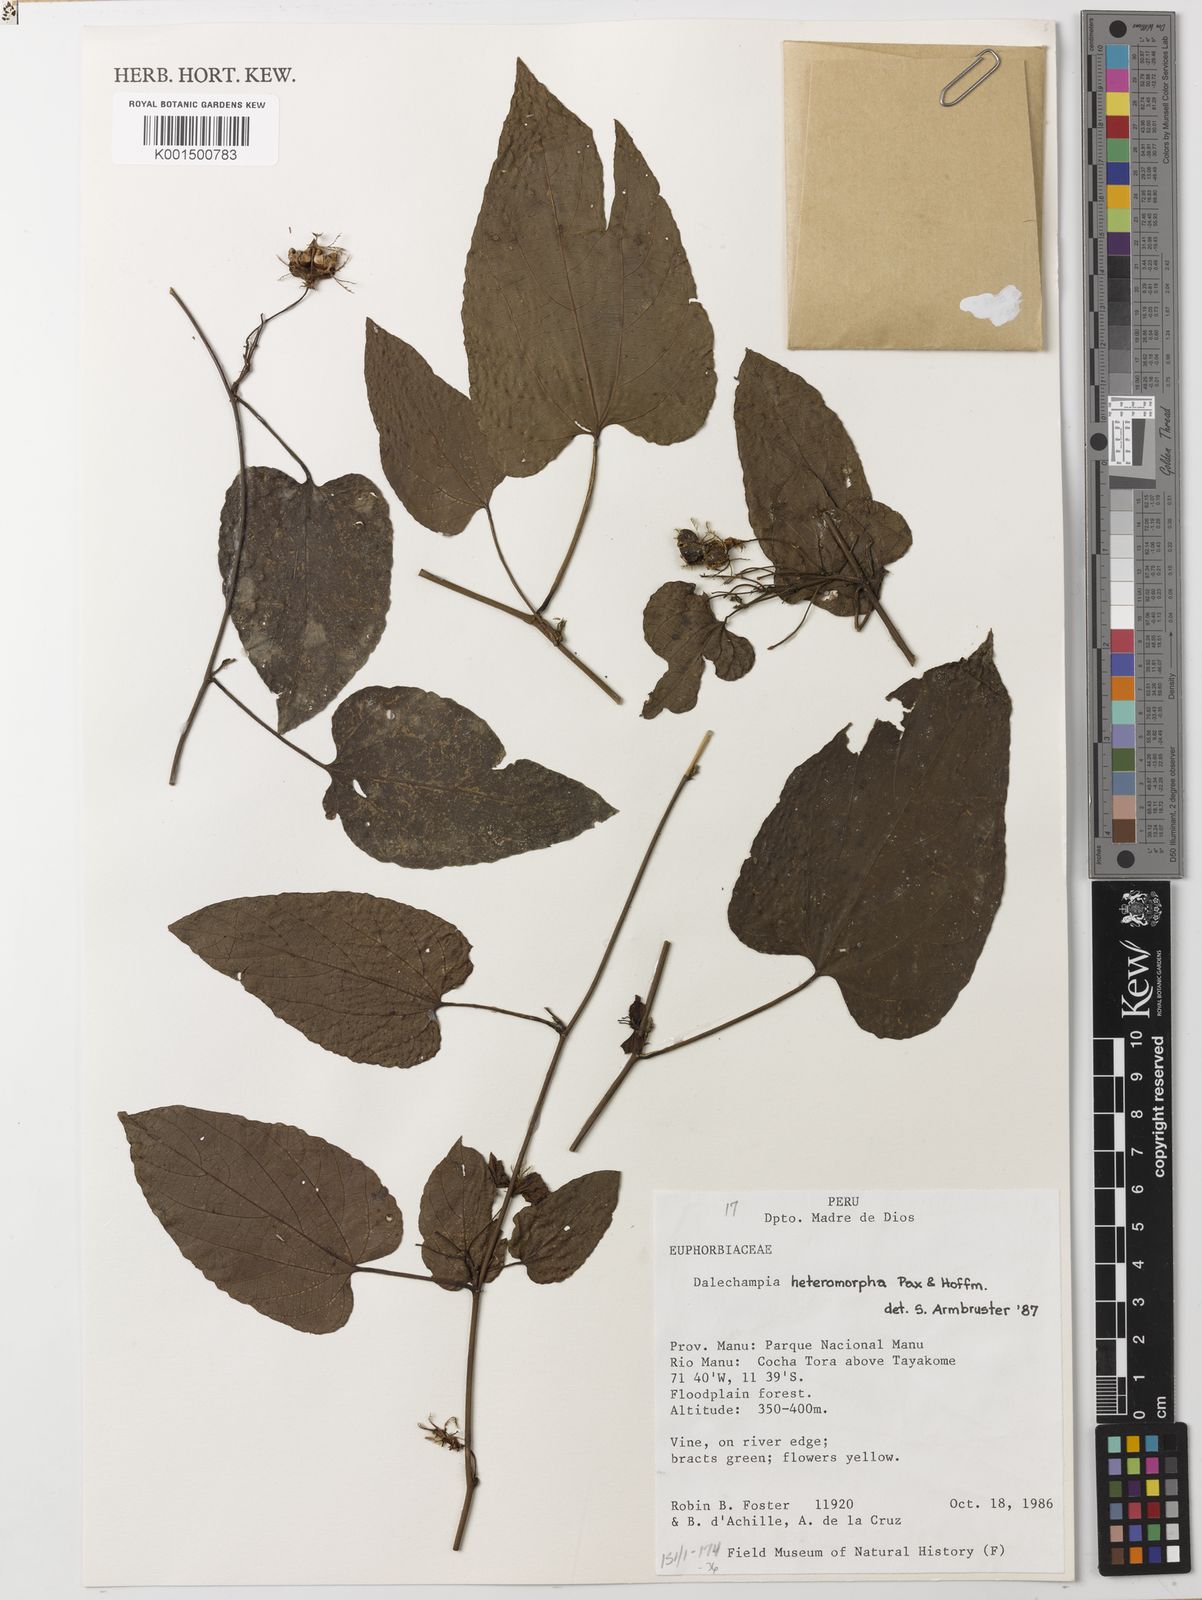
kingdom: Plantae
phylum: Tracheophyta
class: Magnoliopsida
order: Malpighiales
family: Euphorbiaceae
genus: Dalechampia
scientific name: Dalechampia cissifolia
